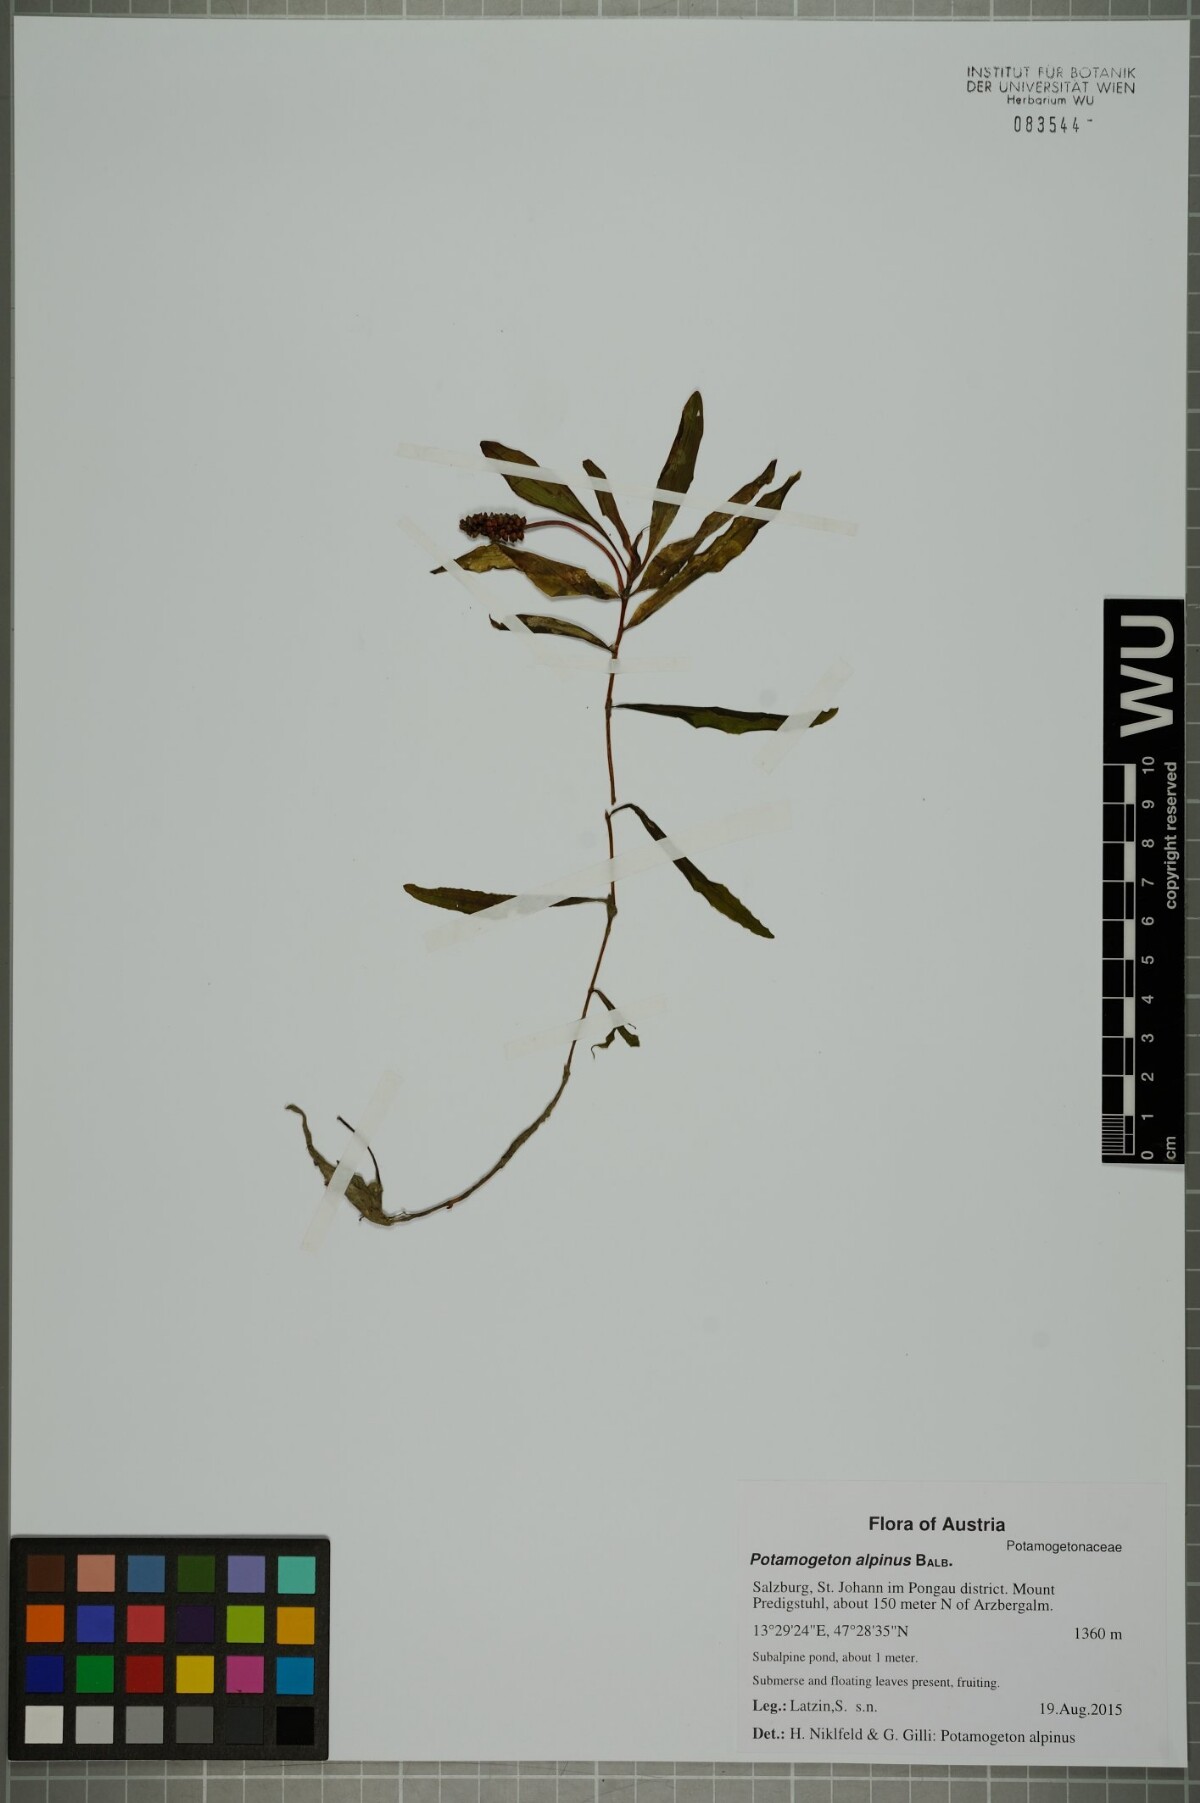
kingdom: Plantae
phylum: Tracheophyta
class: Liliopsida
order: Alismatales
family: Potamogetonaceae
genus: Potamogeton
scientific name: Potamogeton alpinus
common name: Red pondweed
